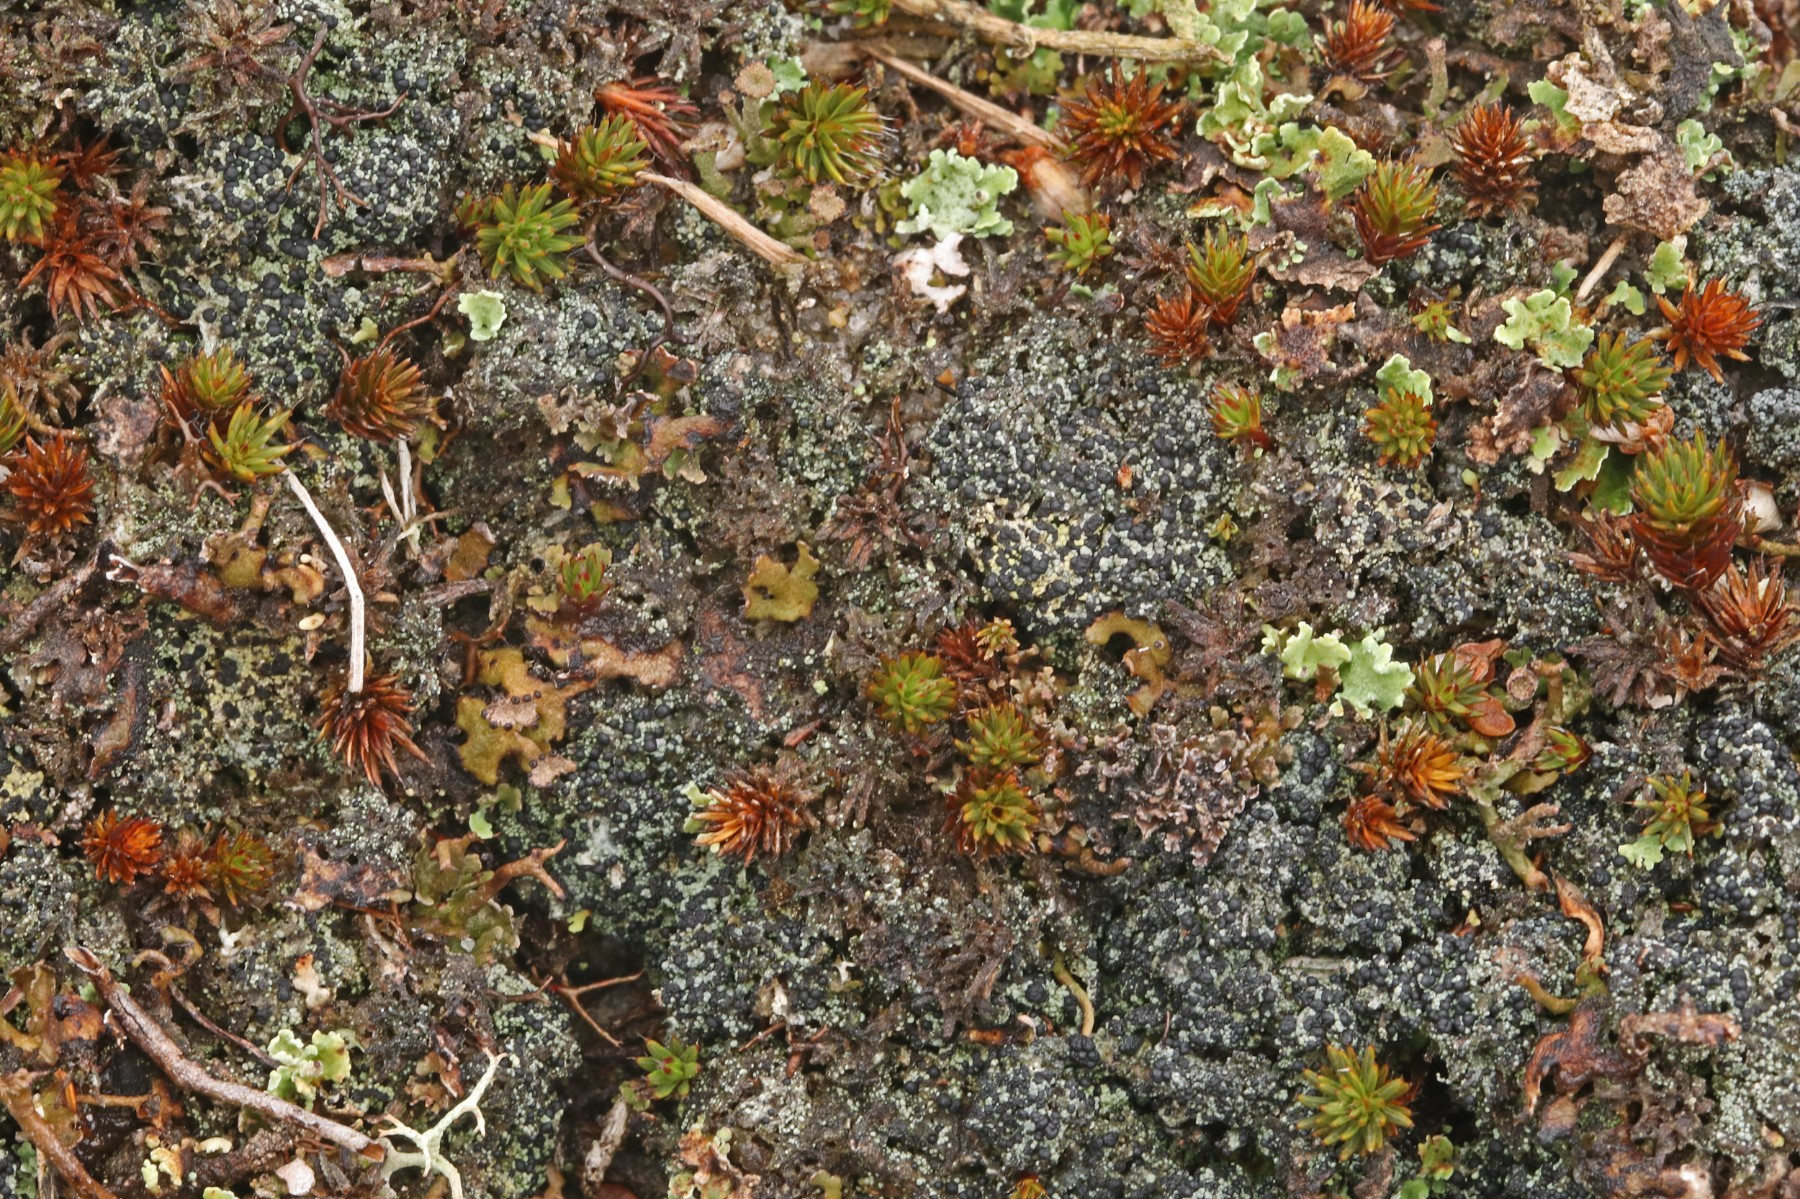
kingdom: Fungi
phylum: Ascomycota
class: Lecanoromycetes
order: Lecanorales
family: Byssolomataceae
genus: Micarea
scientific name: Micarea lignaria
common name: tørve-knaplav
